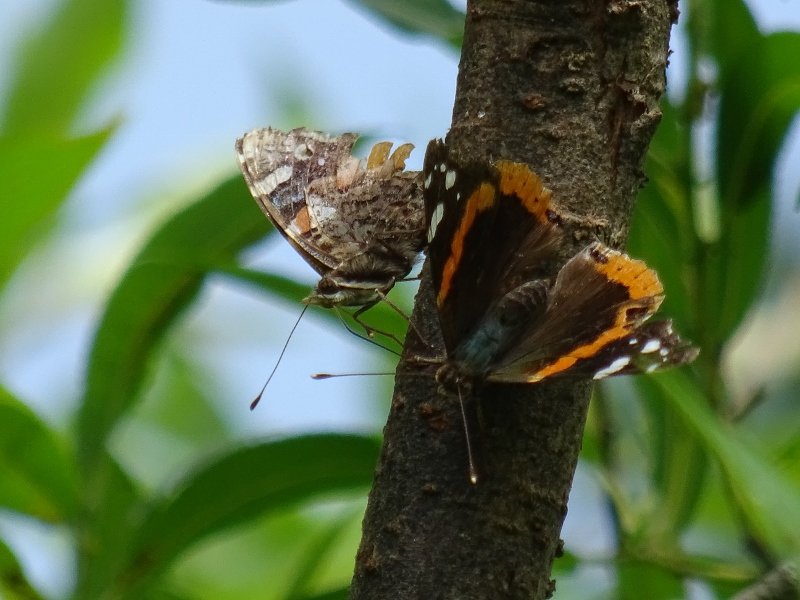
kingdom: Animalia
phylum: Arthropoda
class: Insecta
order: Lepidoptera
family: Nymphalidae
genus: Vanessa
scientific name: Vanessa atalanta
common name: Red Admiral
